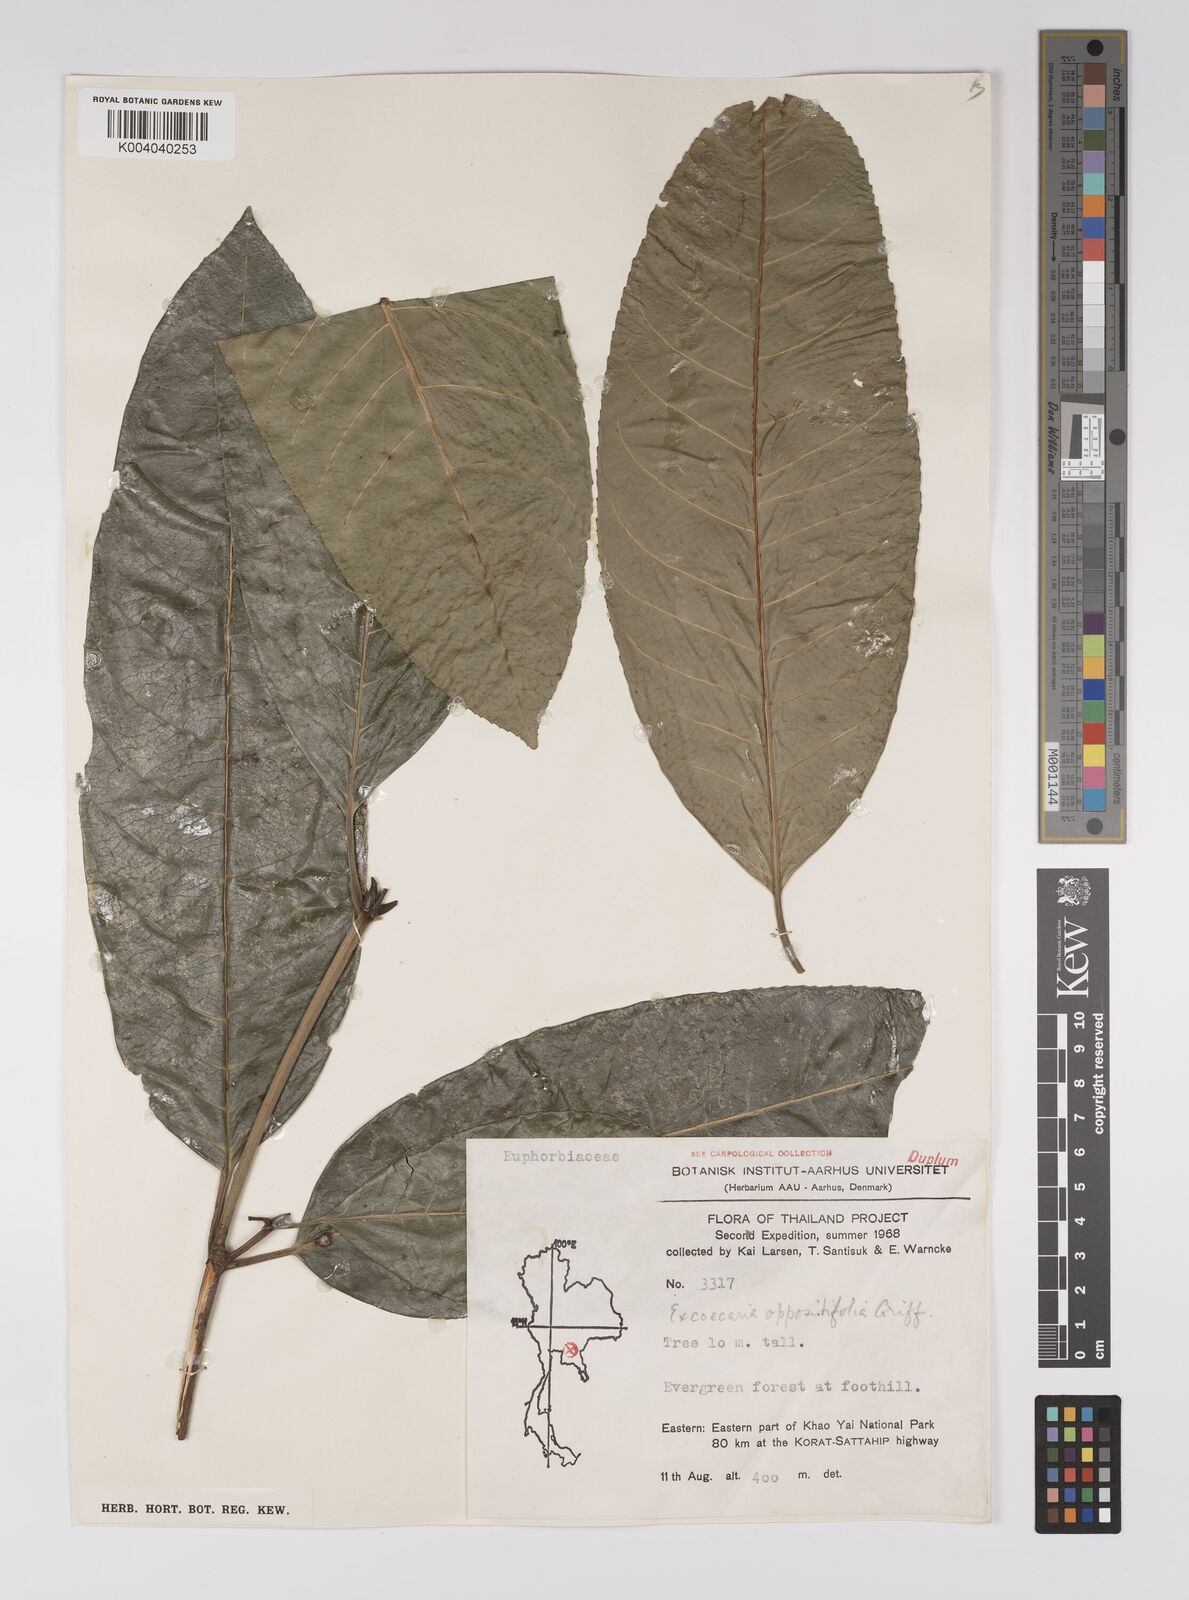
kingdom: Plantae
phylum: Tracheophyta
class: Magnoliopsida
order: Malpighiales
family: Euphorbiaceae
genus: Excoecaria
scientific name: Excoecaria oppositifolia
